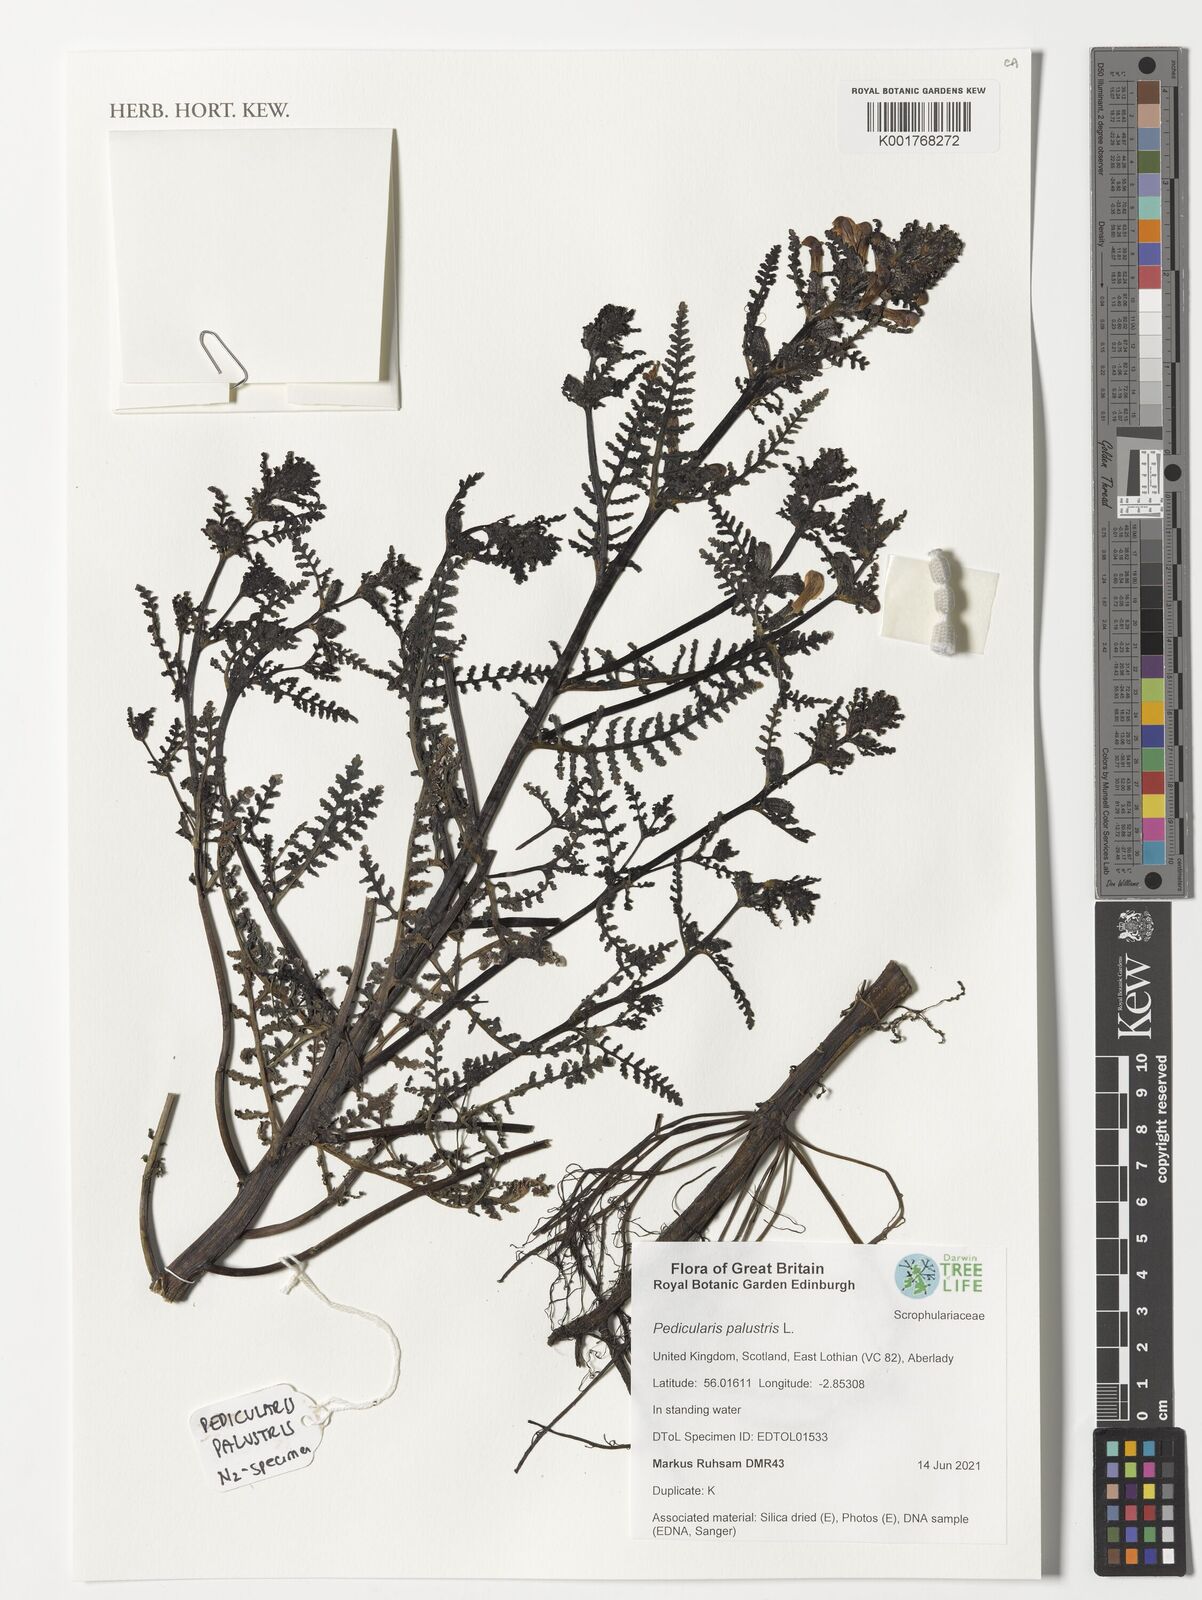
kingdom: Plantae
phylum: Tracheophyta
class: Magnoliopsida
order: Lamiales
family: Orobanchaceae
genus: Pedicularis
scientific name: Pedicularis palustris
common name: Marsh lousewort
